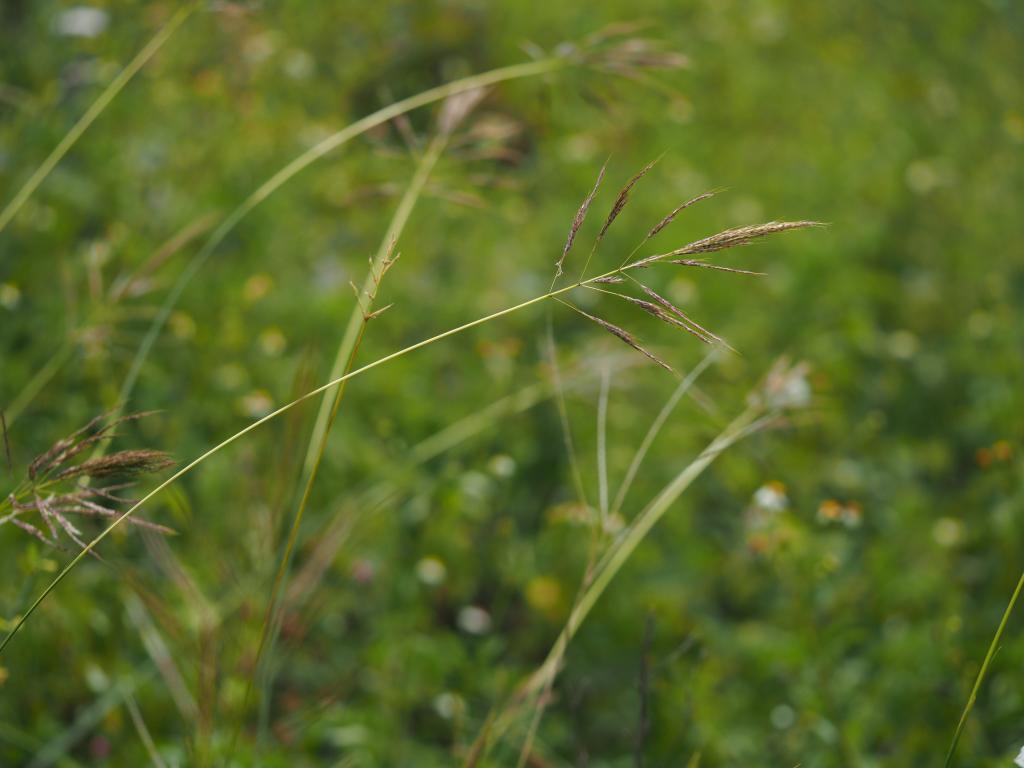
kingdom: Plantae
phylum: Tracheophyta
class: Liliopsida
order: Poales
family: Poaceae
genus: Bothriochloa
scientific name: Bothriochloa bladhii
